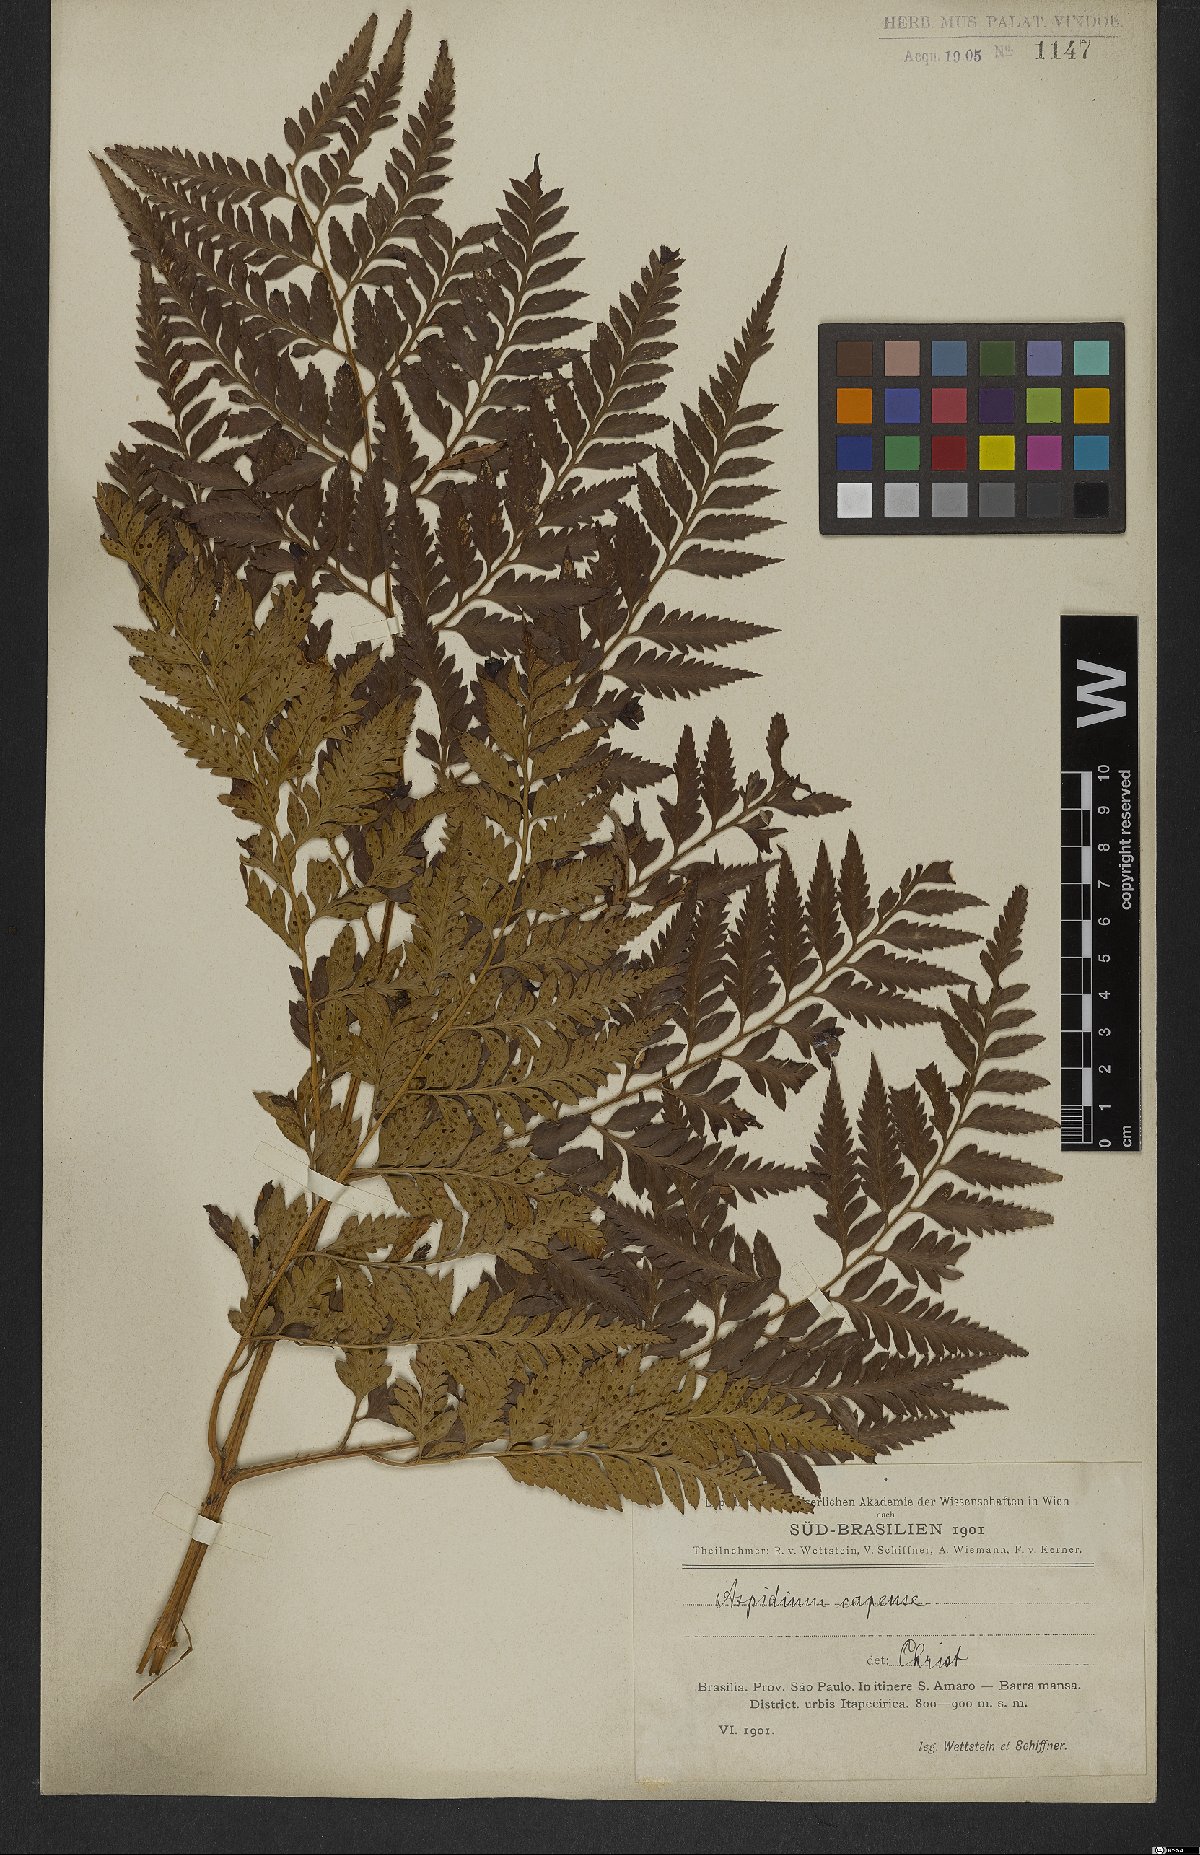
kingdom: Plantae
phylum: Tracheophyta
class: Polypodiopsida
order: Polypodiales
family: Dryopteridaceae
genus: Rumohra
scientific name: Rumohra adiantiformis
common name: Leather fern
